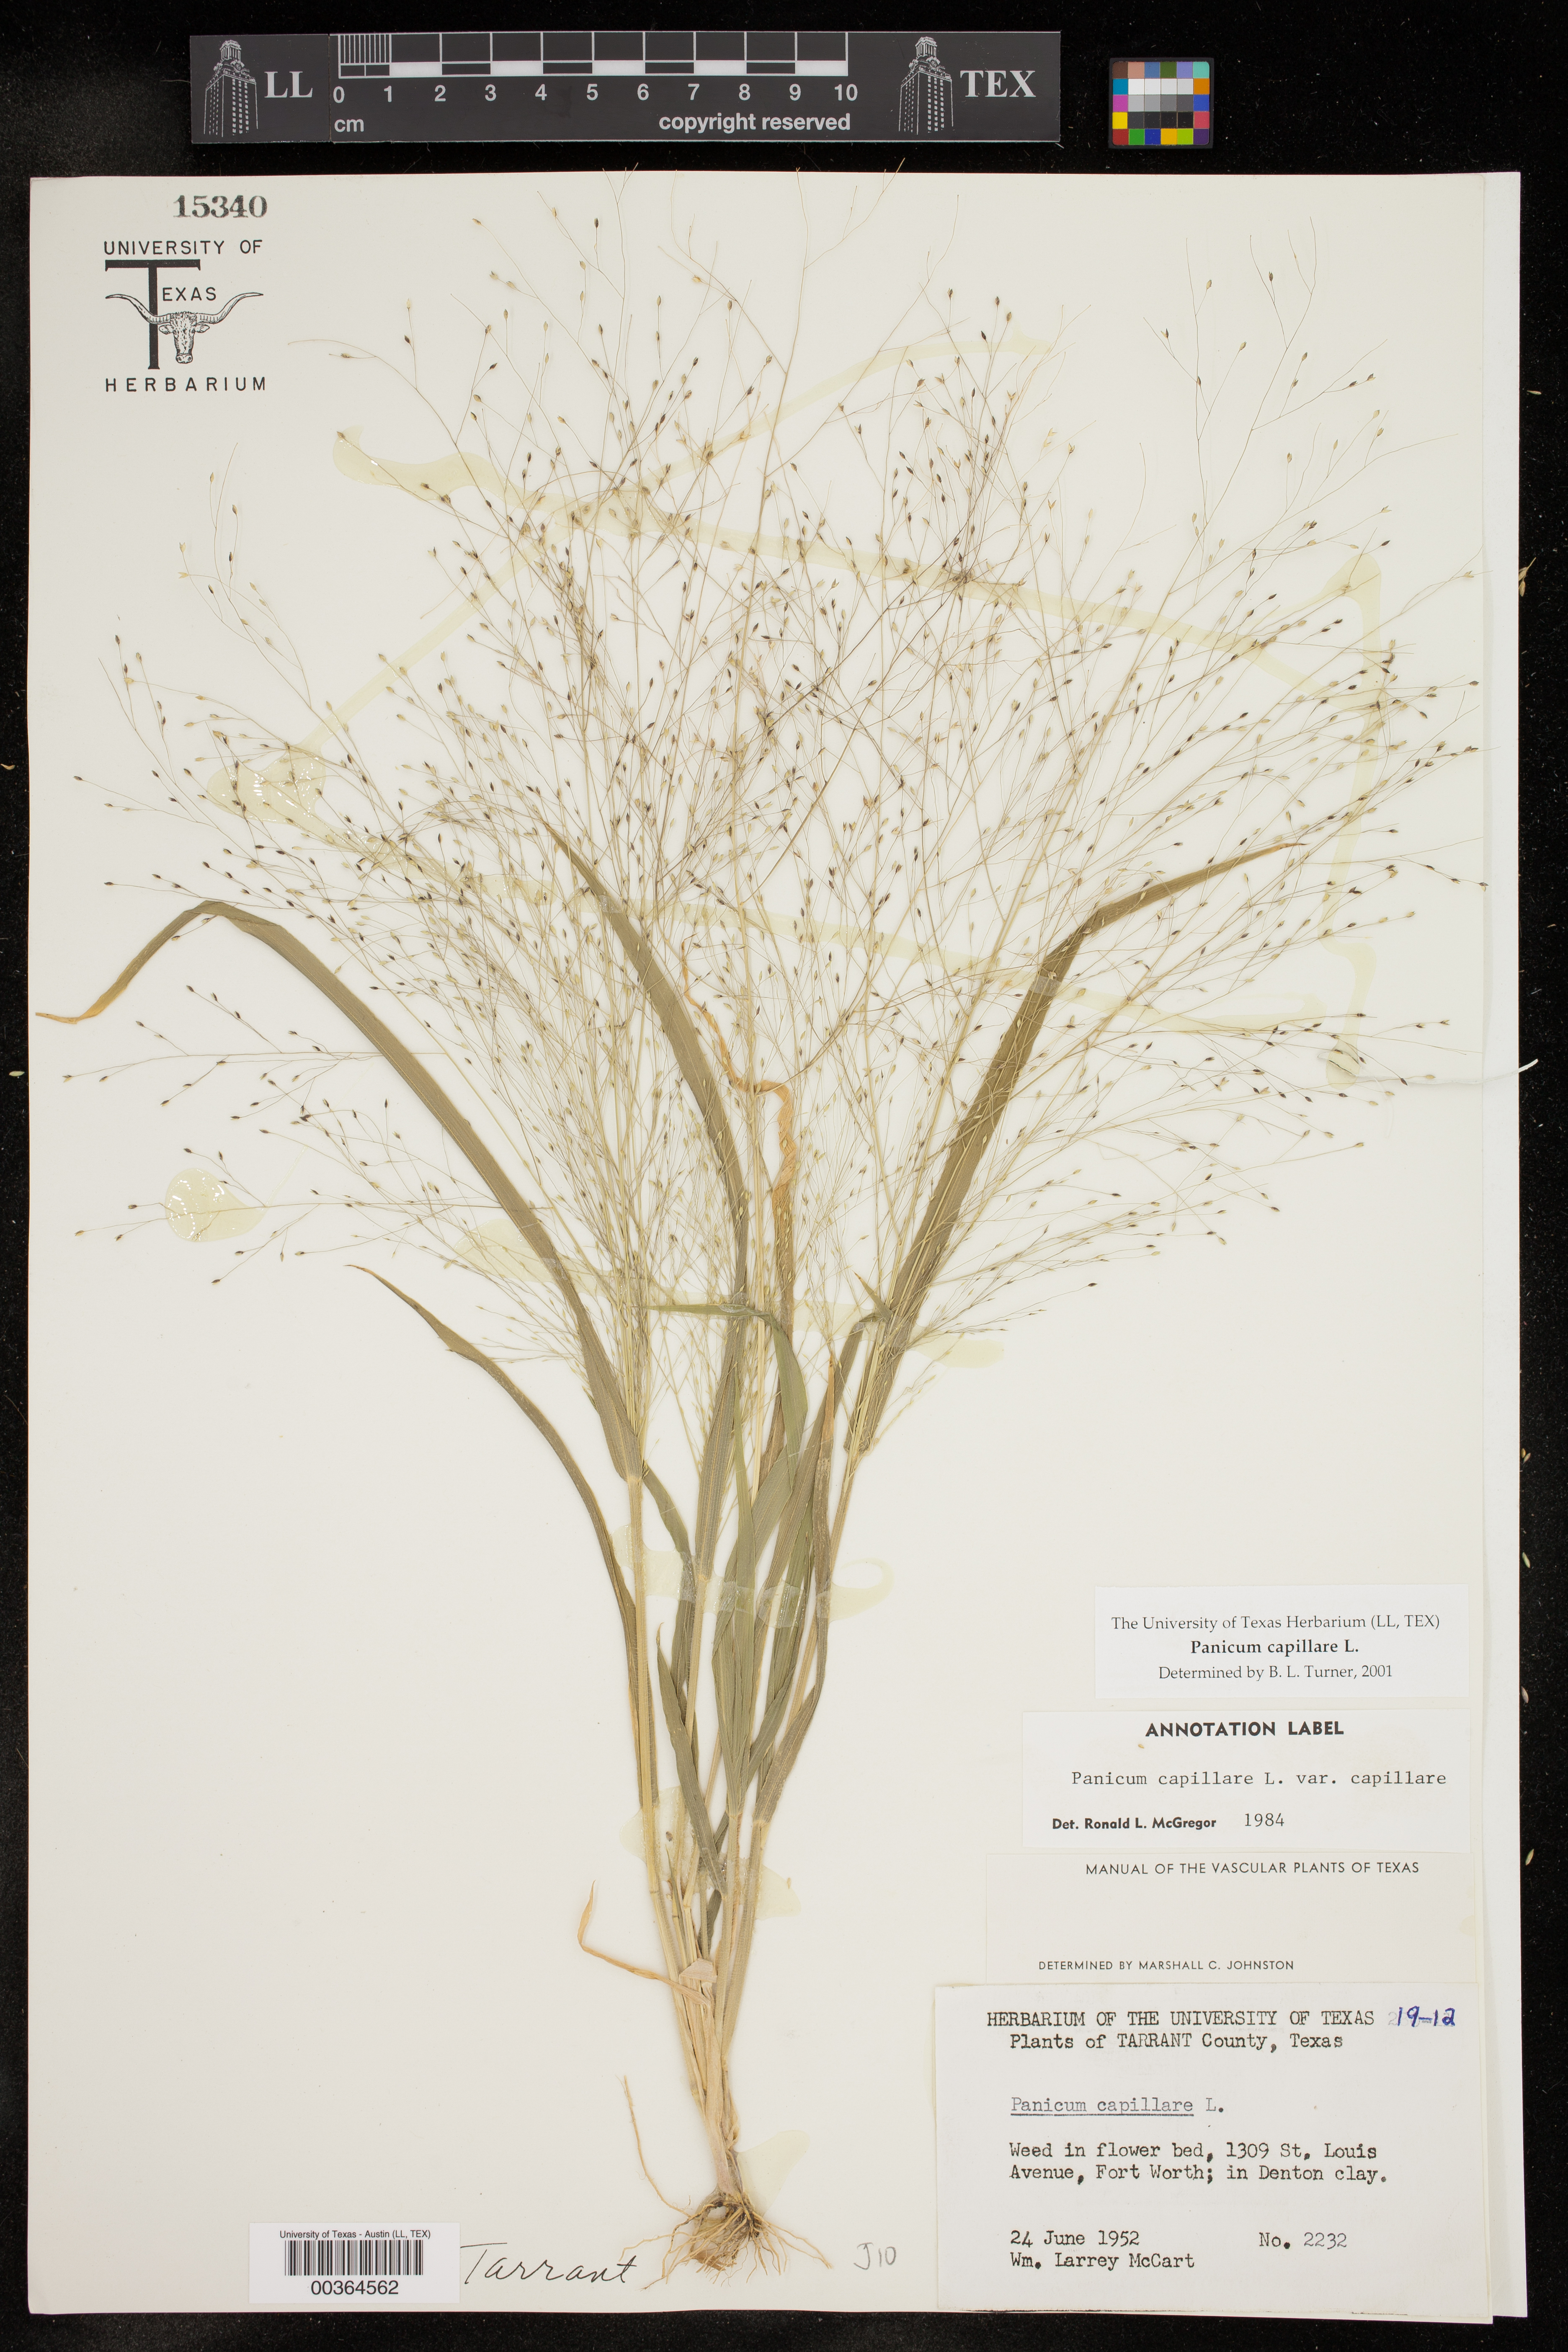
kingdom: Plantae
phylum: Tracheophyta
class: Liliopsida
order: Poales
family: Poaceae
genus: Panicum
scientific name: Panicum capillare
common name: Witch-grass
